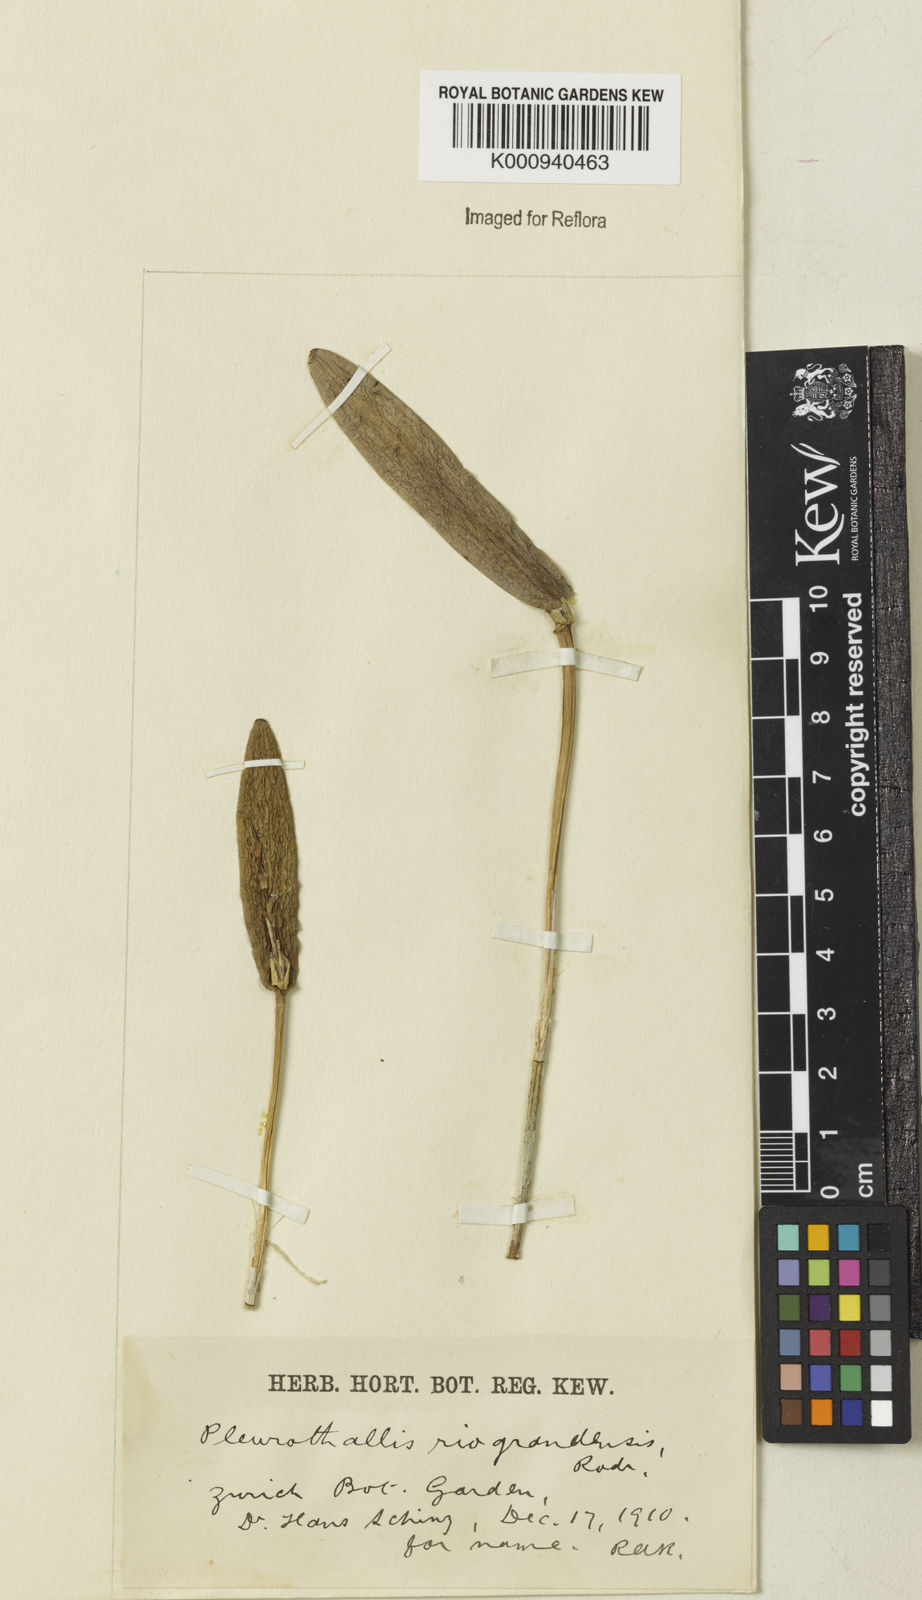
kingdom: Plantae
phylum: Tracheophyta
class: Liliopsida
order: Asparagales
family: Orchidaceae
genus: Acianthera
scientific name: Acianthera
